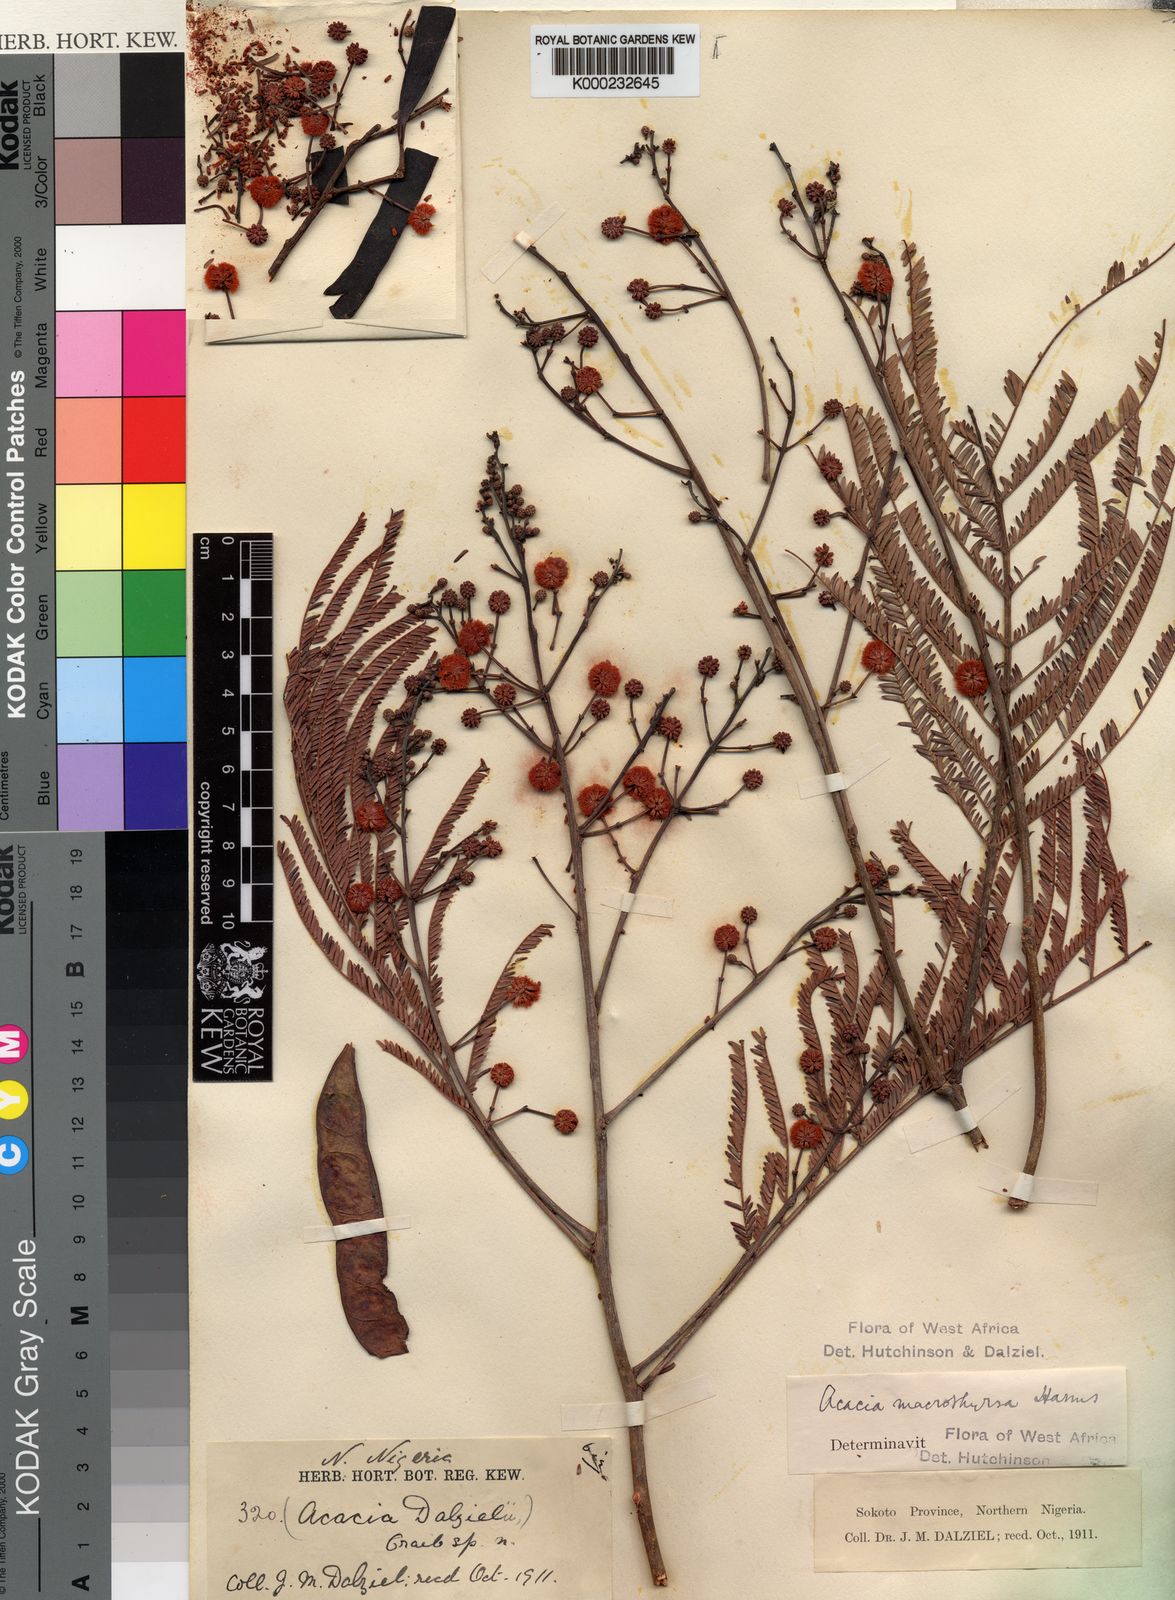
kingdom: Plantae
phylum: Tracheophyta
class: Magnoliopsida
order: Fabales
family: Fabaceae
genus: Vachellia
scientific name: Vachellia amythethophylla
